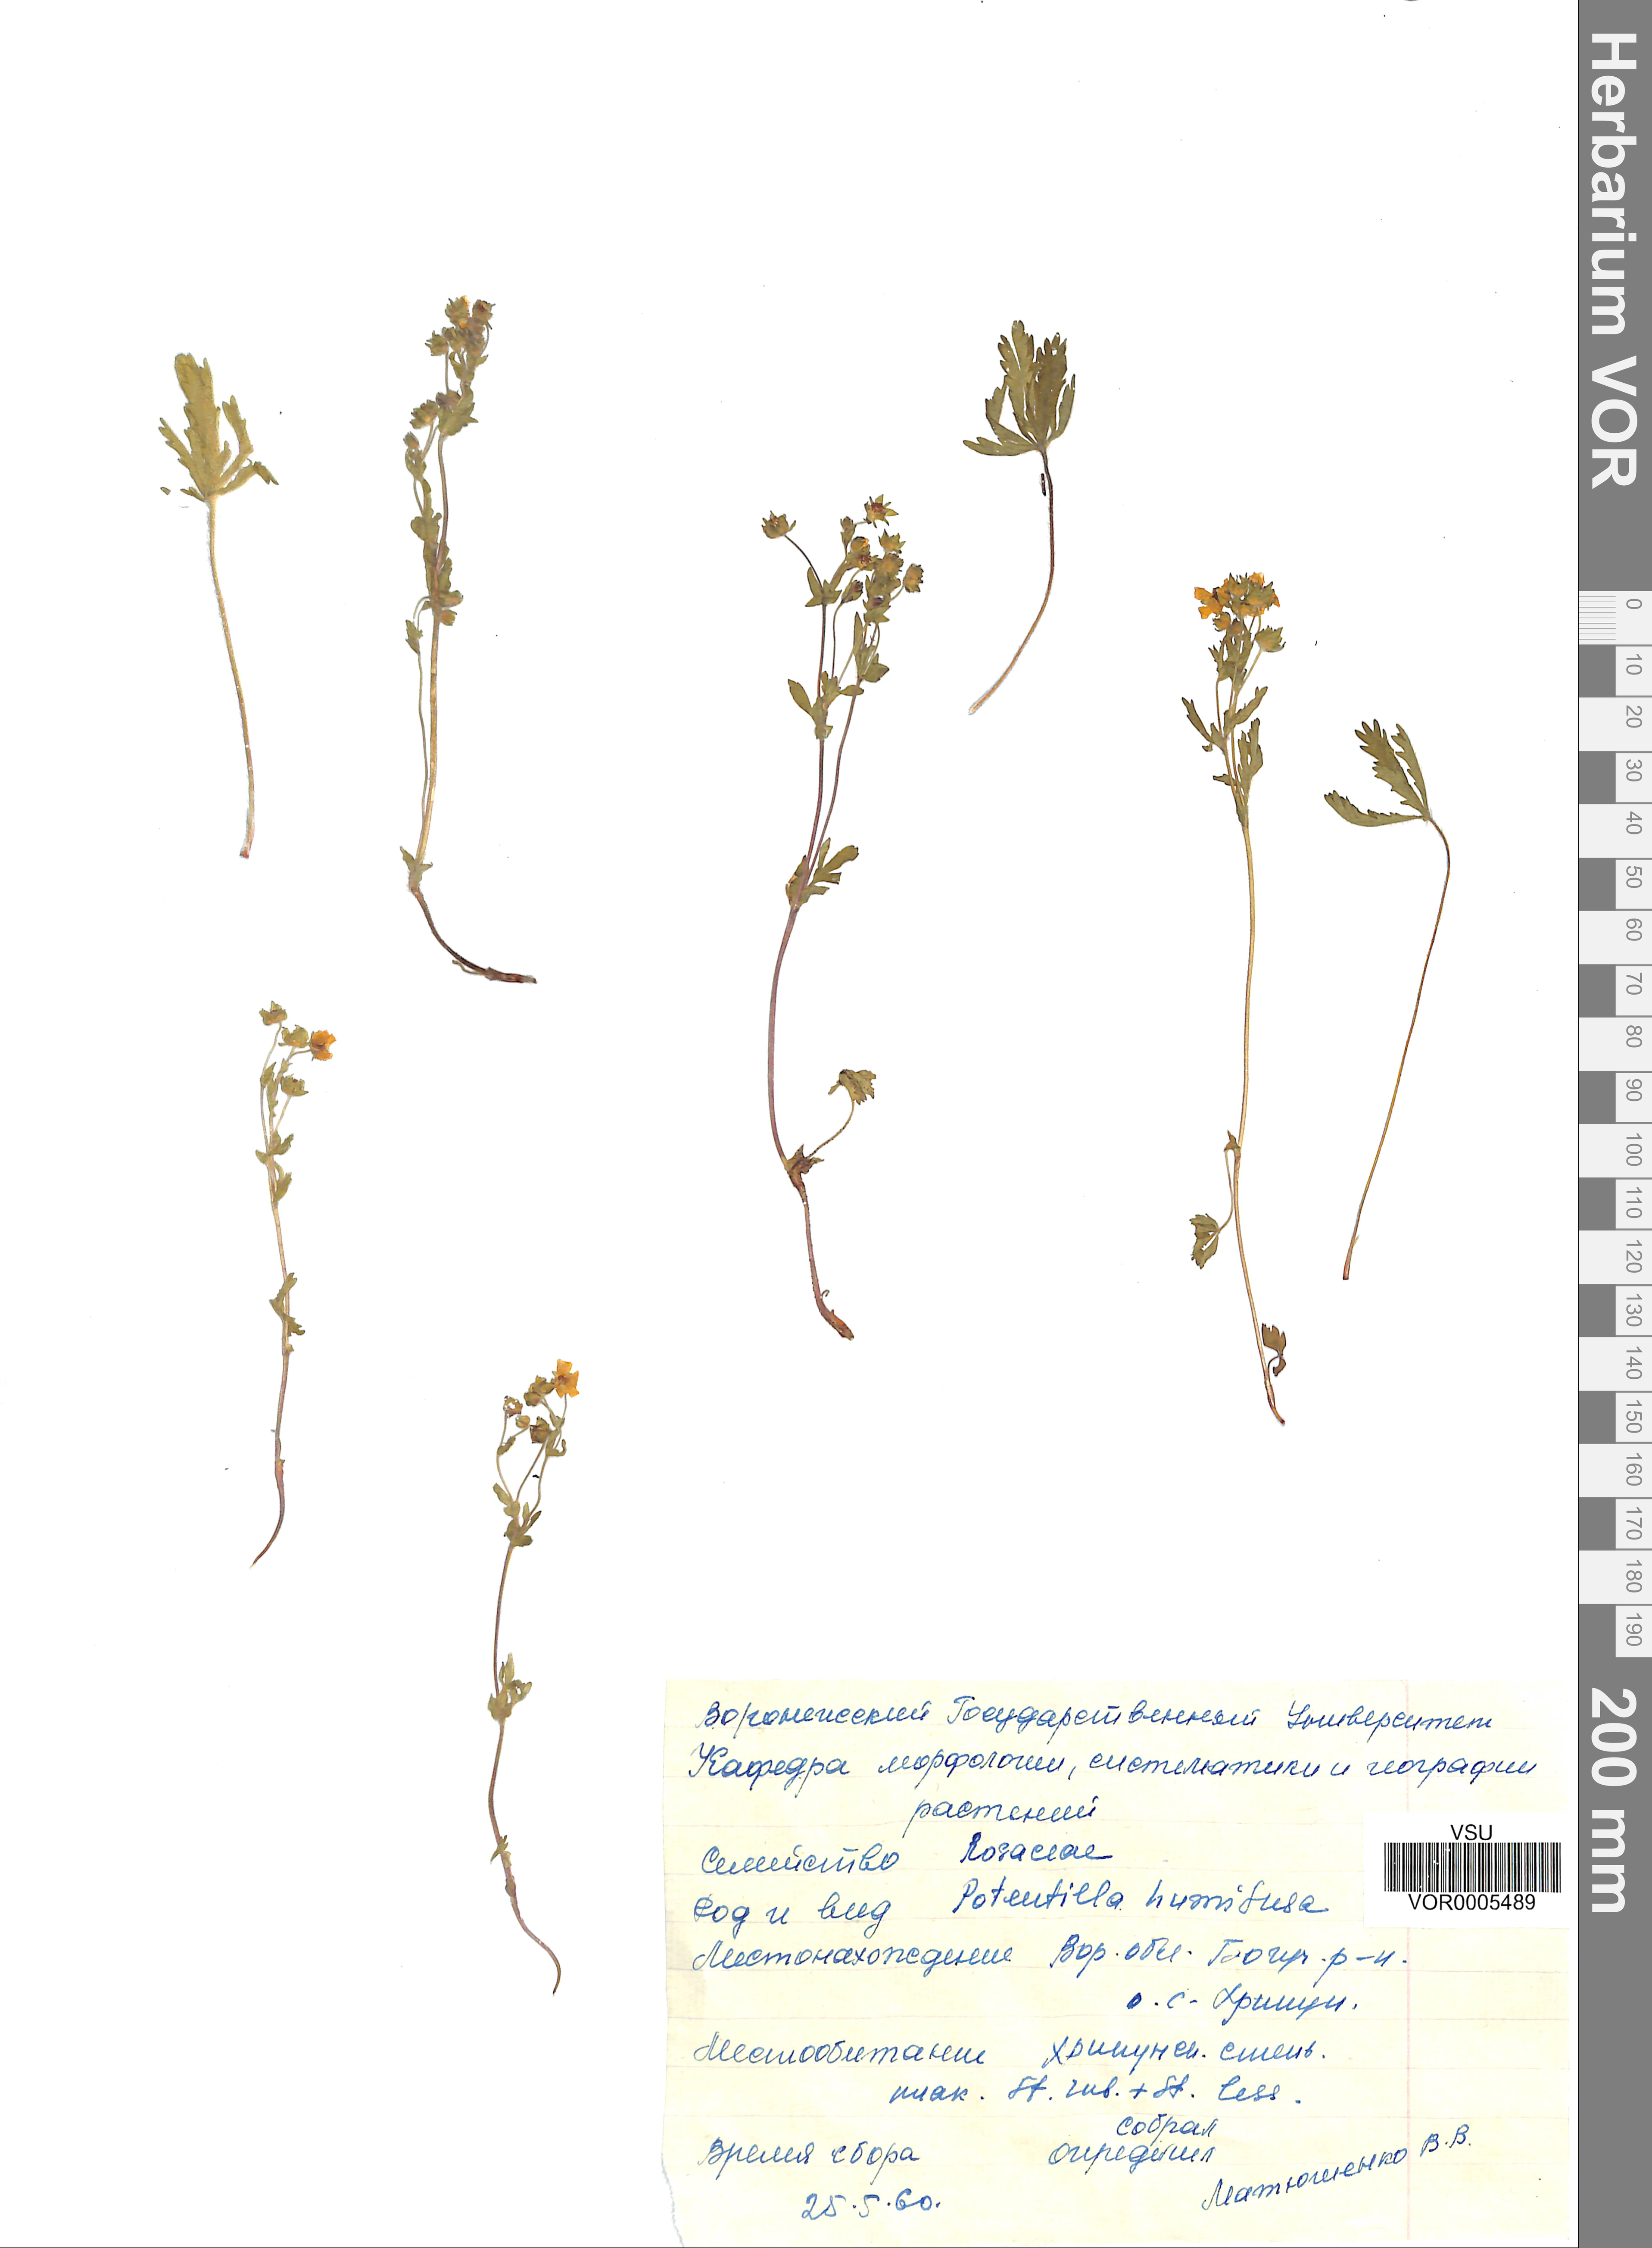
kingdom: Plantae
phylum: Tracheophyta
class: Magnoliopsida
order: Rosales
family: Rosaceae
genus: Potentilla
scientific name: Potentilla humifusa
